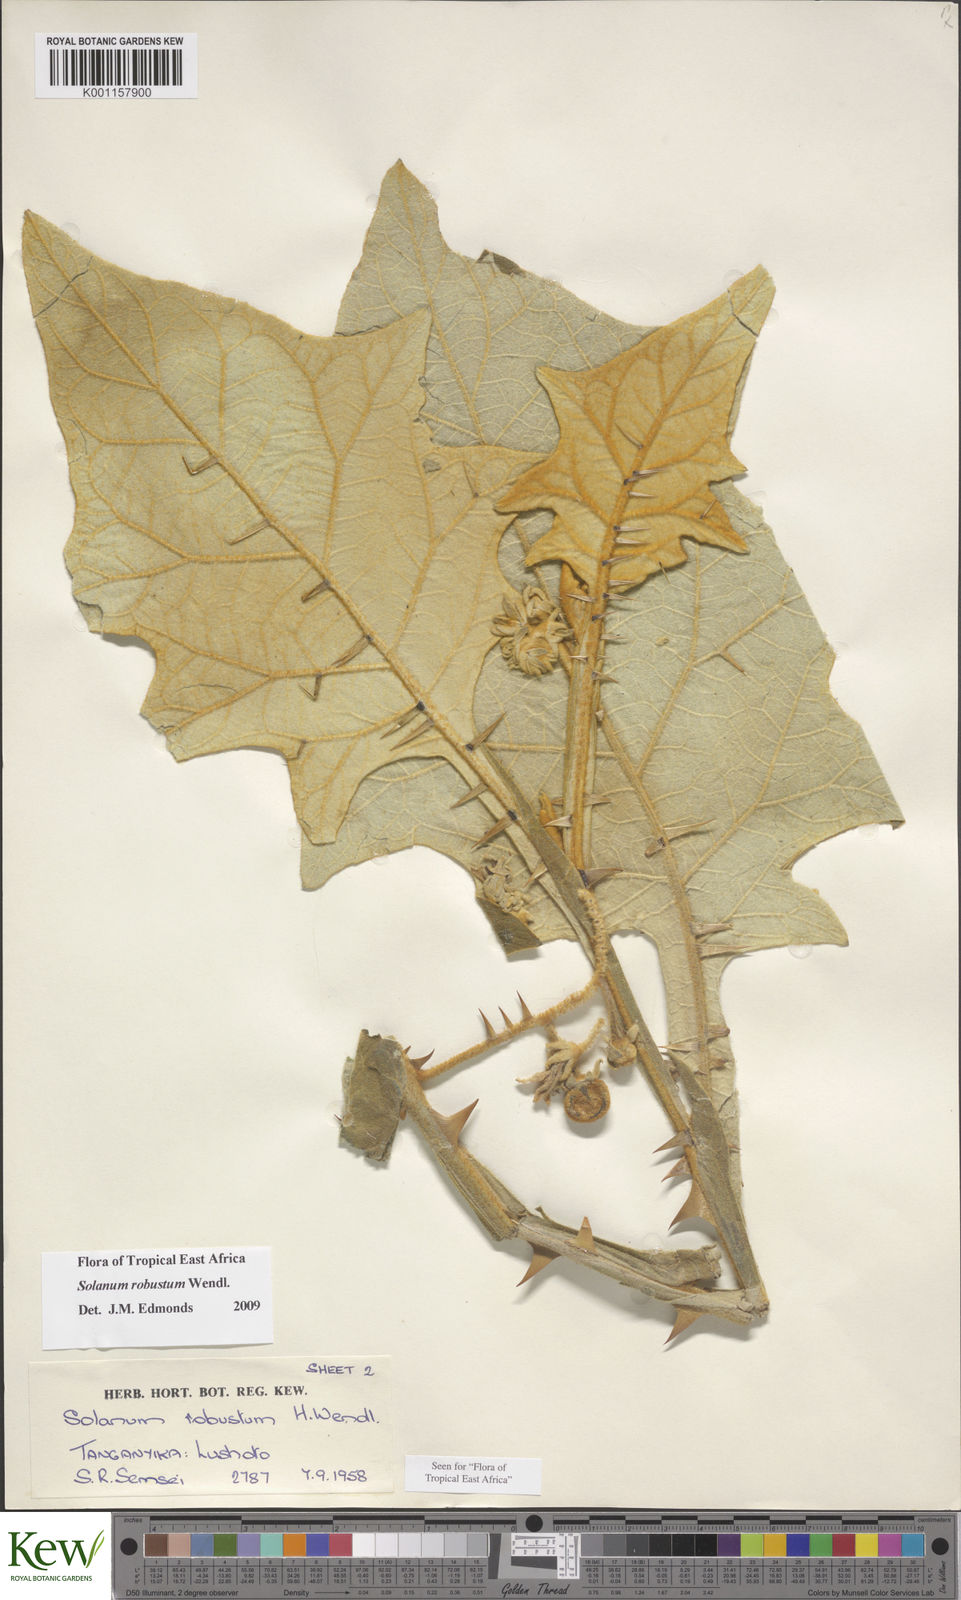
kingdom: Plantae
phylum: Tracheophyta
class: Magnoliopsida
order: Solanales
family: Solanaceae
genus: Solanum
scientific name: Solanum robustum
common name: Shrubby nightshade
